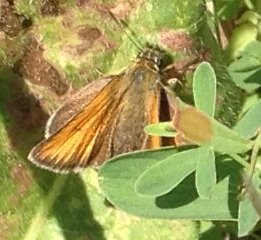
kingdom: Animalia
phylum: Arthropoda
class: Insecta
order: Lepidoptera
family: Hesperiidae
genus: Thymelicus
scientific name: Thymelicus lineola
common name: European Skipper
